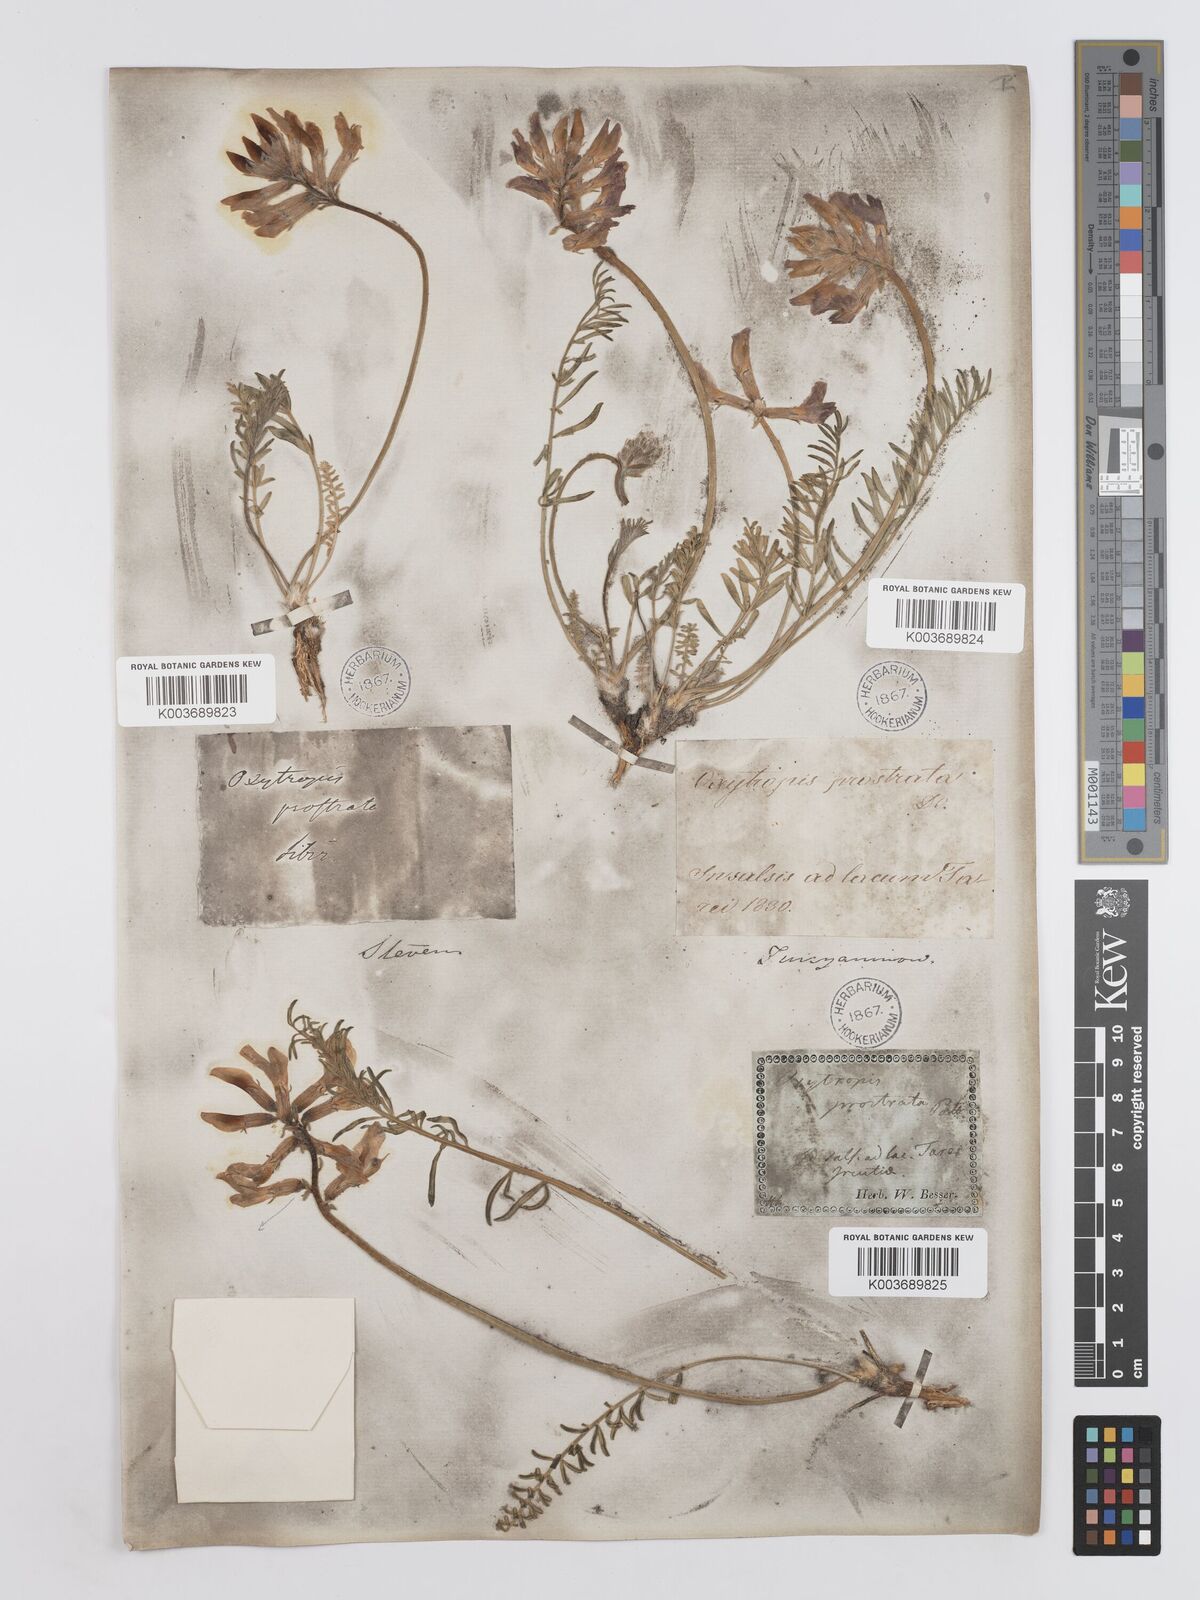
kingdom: Plantae
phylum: Tracheophyta
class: Magnoliopsida
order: Fabales
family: Fabaceae
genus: Oxytropis
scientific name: Oxytropis prostrata
